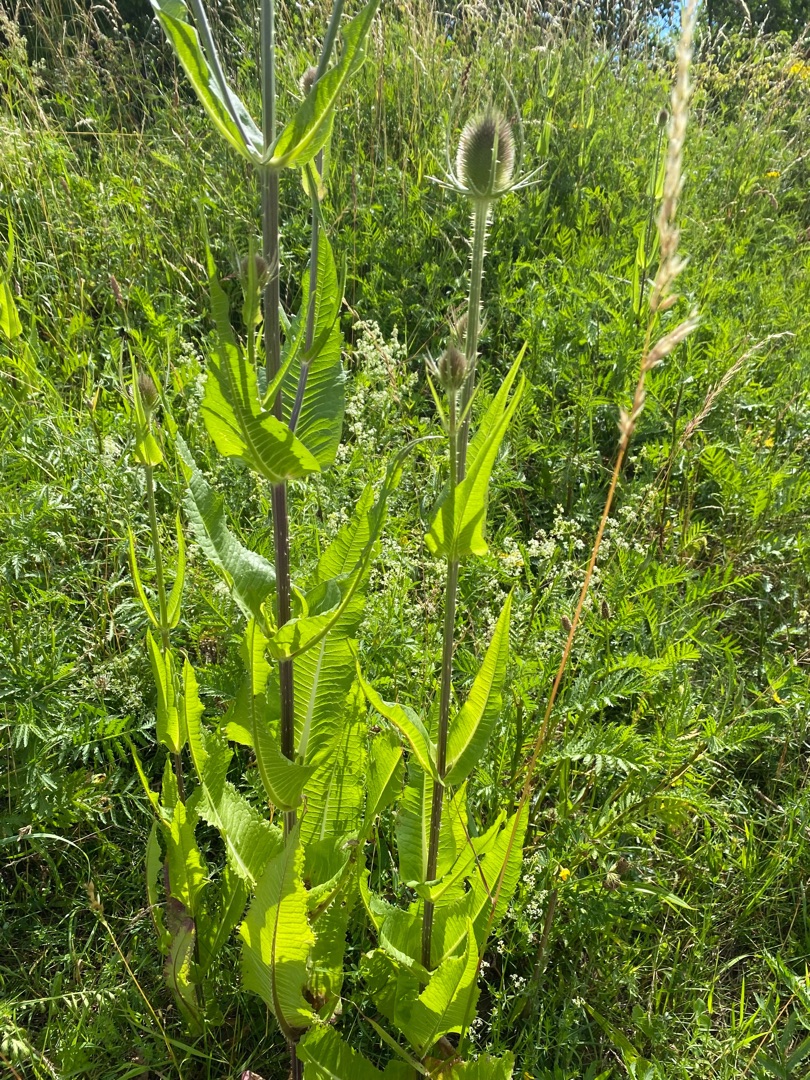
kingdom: Plantae
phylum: Tracheophyta
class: Magnoliopsida
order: Dipsacales
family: Caprifoliaceae
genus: Dipsacus
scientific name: Dipsacus fullonum
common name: Gærde-kartebolle
